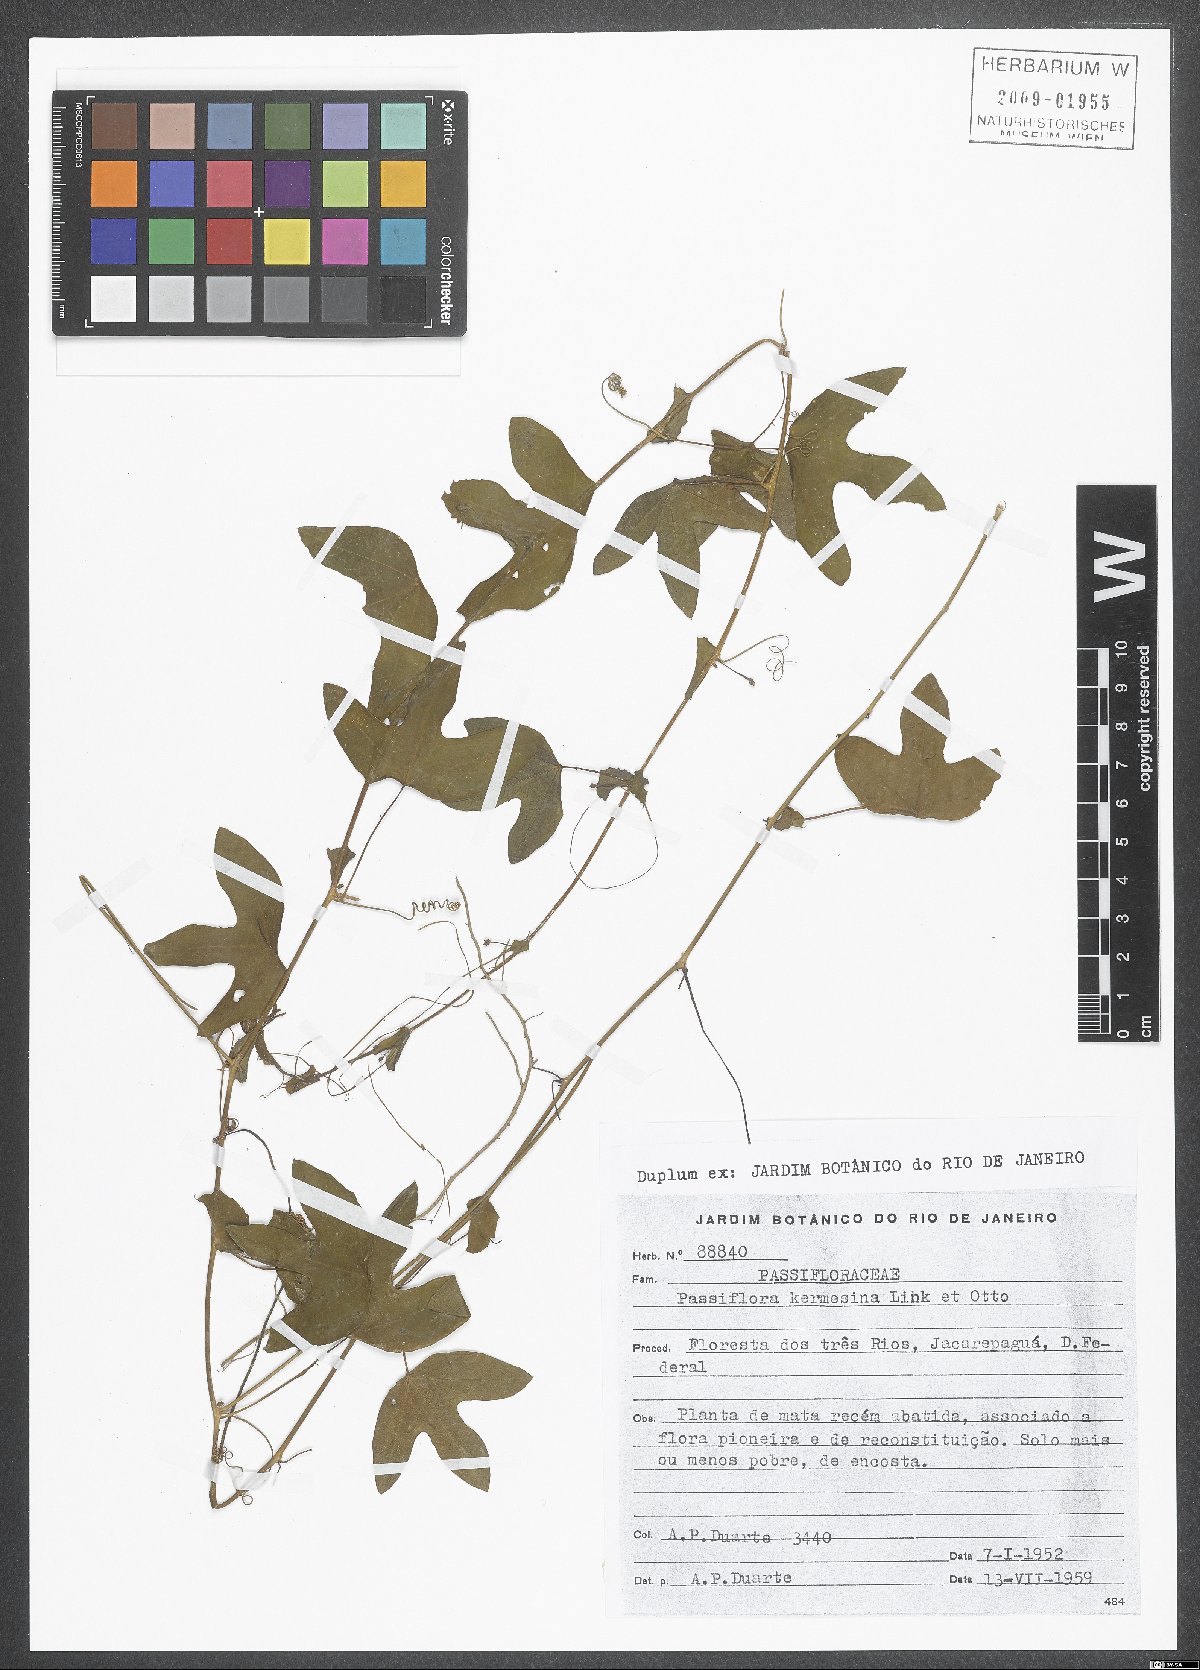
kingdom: Plantae
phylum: Tracheophyta
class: Magnoliopsida
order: Malpighiales
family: Passifloraceae
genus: Passiflora
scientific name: Passiflora kermesina
